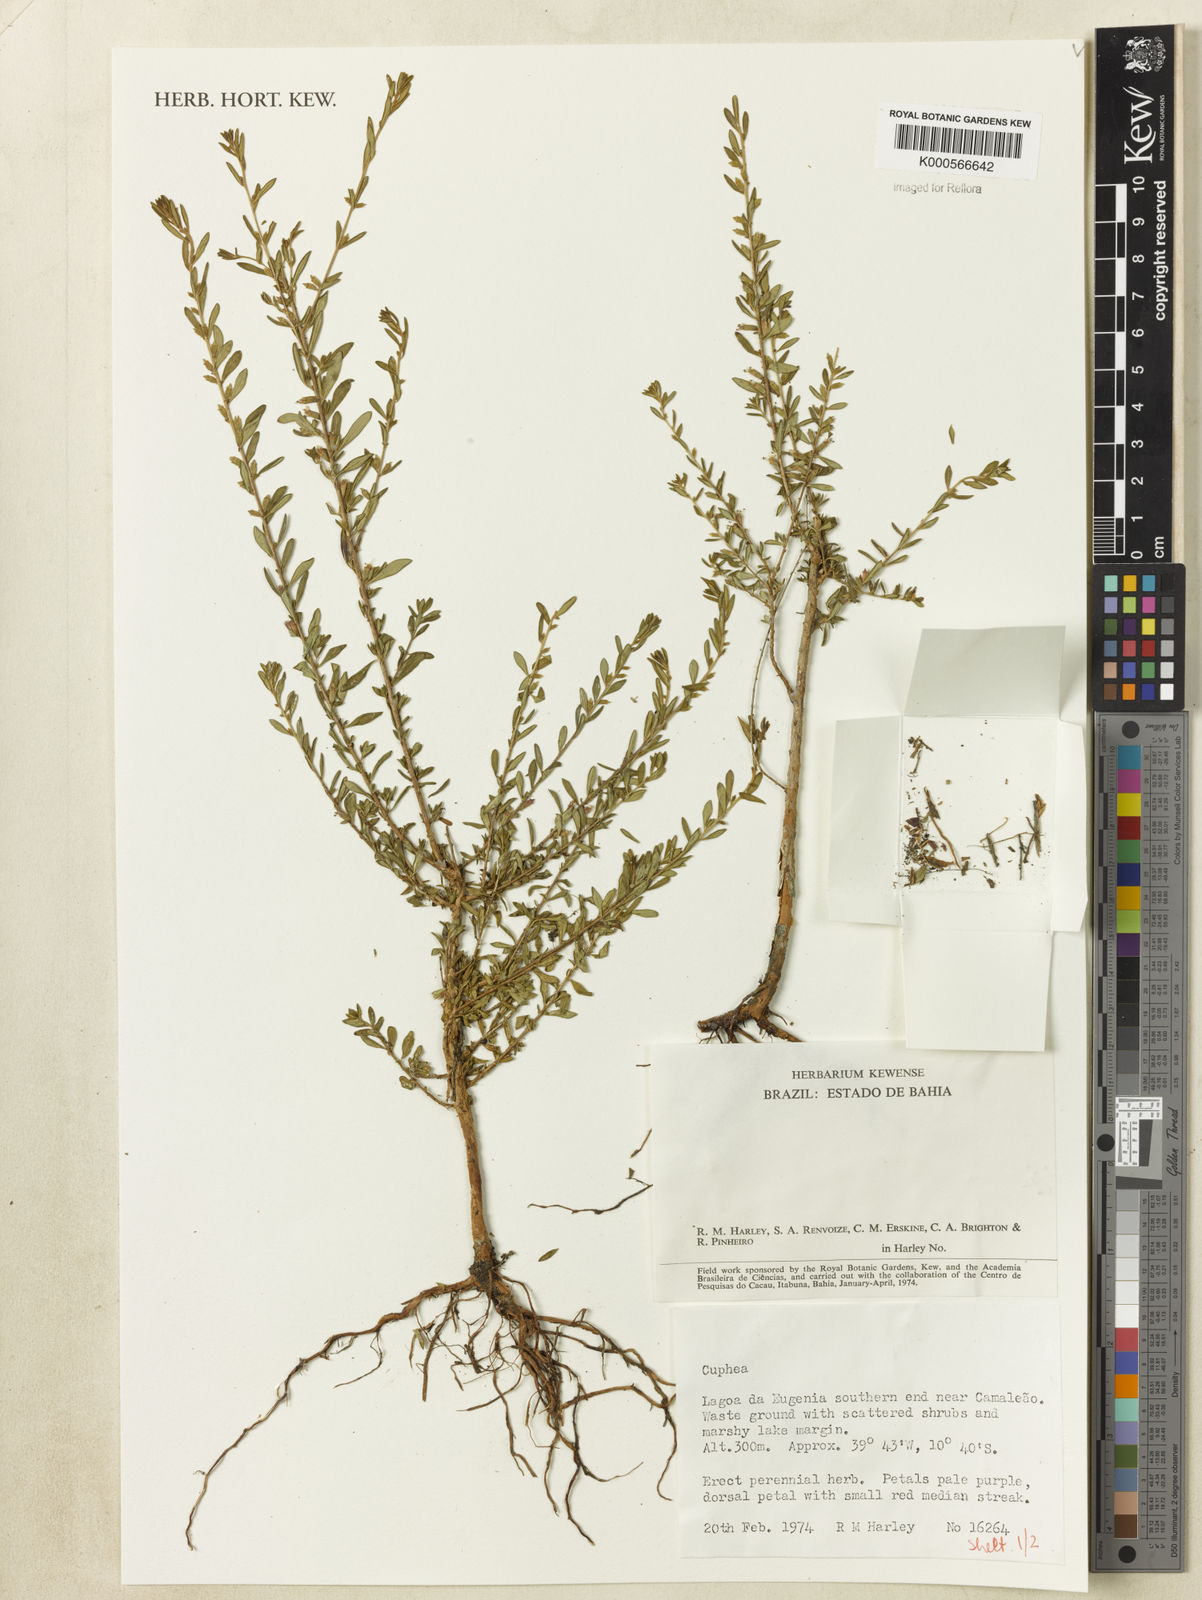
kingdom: Plantae
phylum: Tracheophyta
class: Magnoliopsida
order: Myrtales
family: Lythraceae
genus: Cuphea
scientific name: Cuphea
